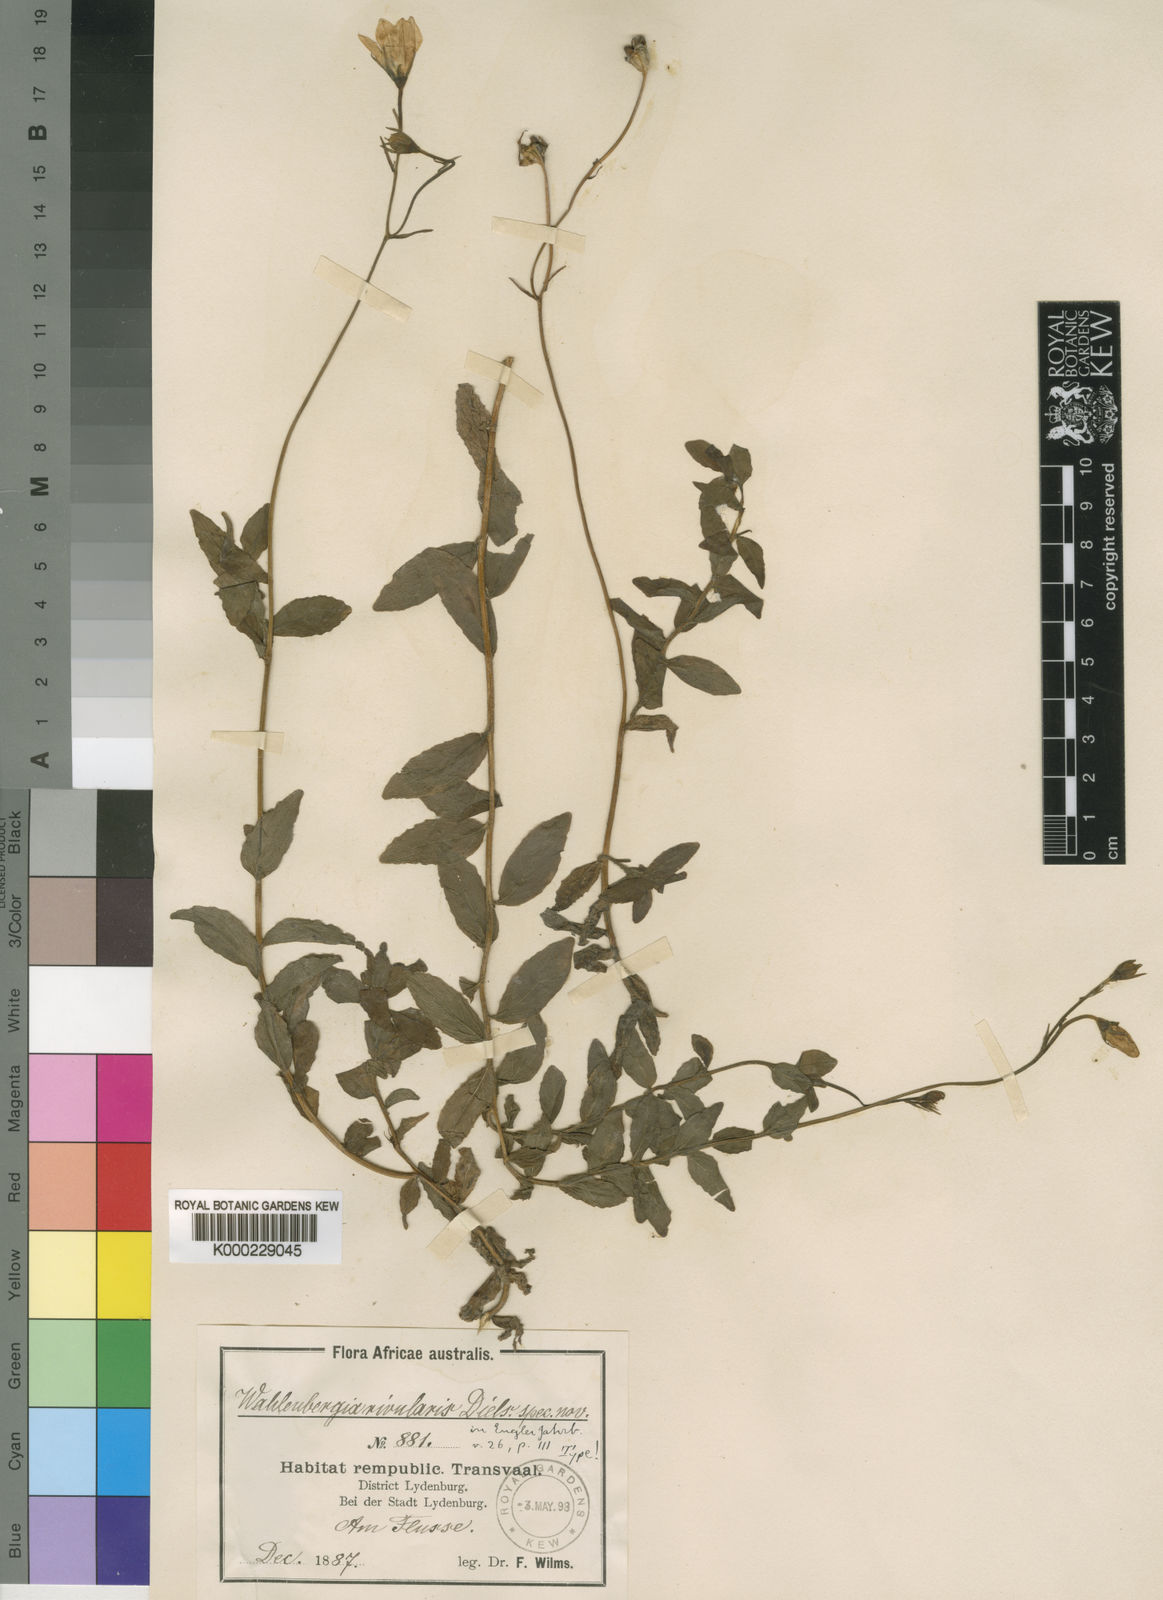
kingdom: Plantae
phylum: Tracheophyta
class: Magnoliopsida
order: Asterales
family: Campanulaceae
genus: Wahlenbergia
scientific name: Wahlenbergia rivularis
